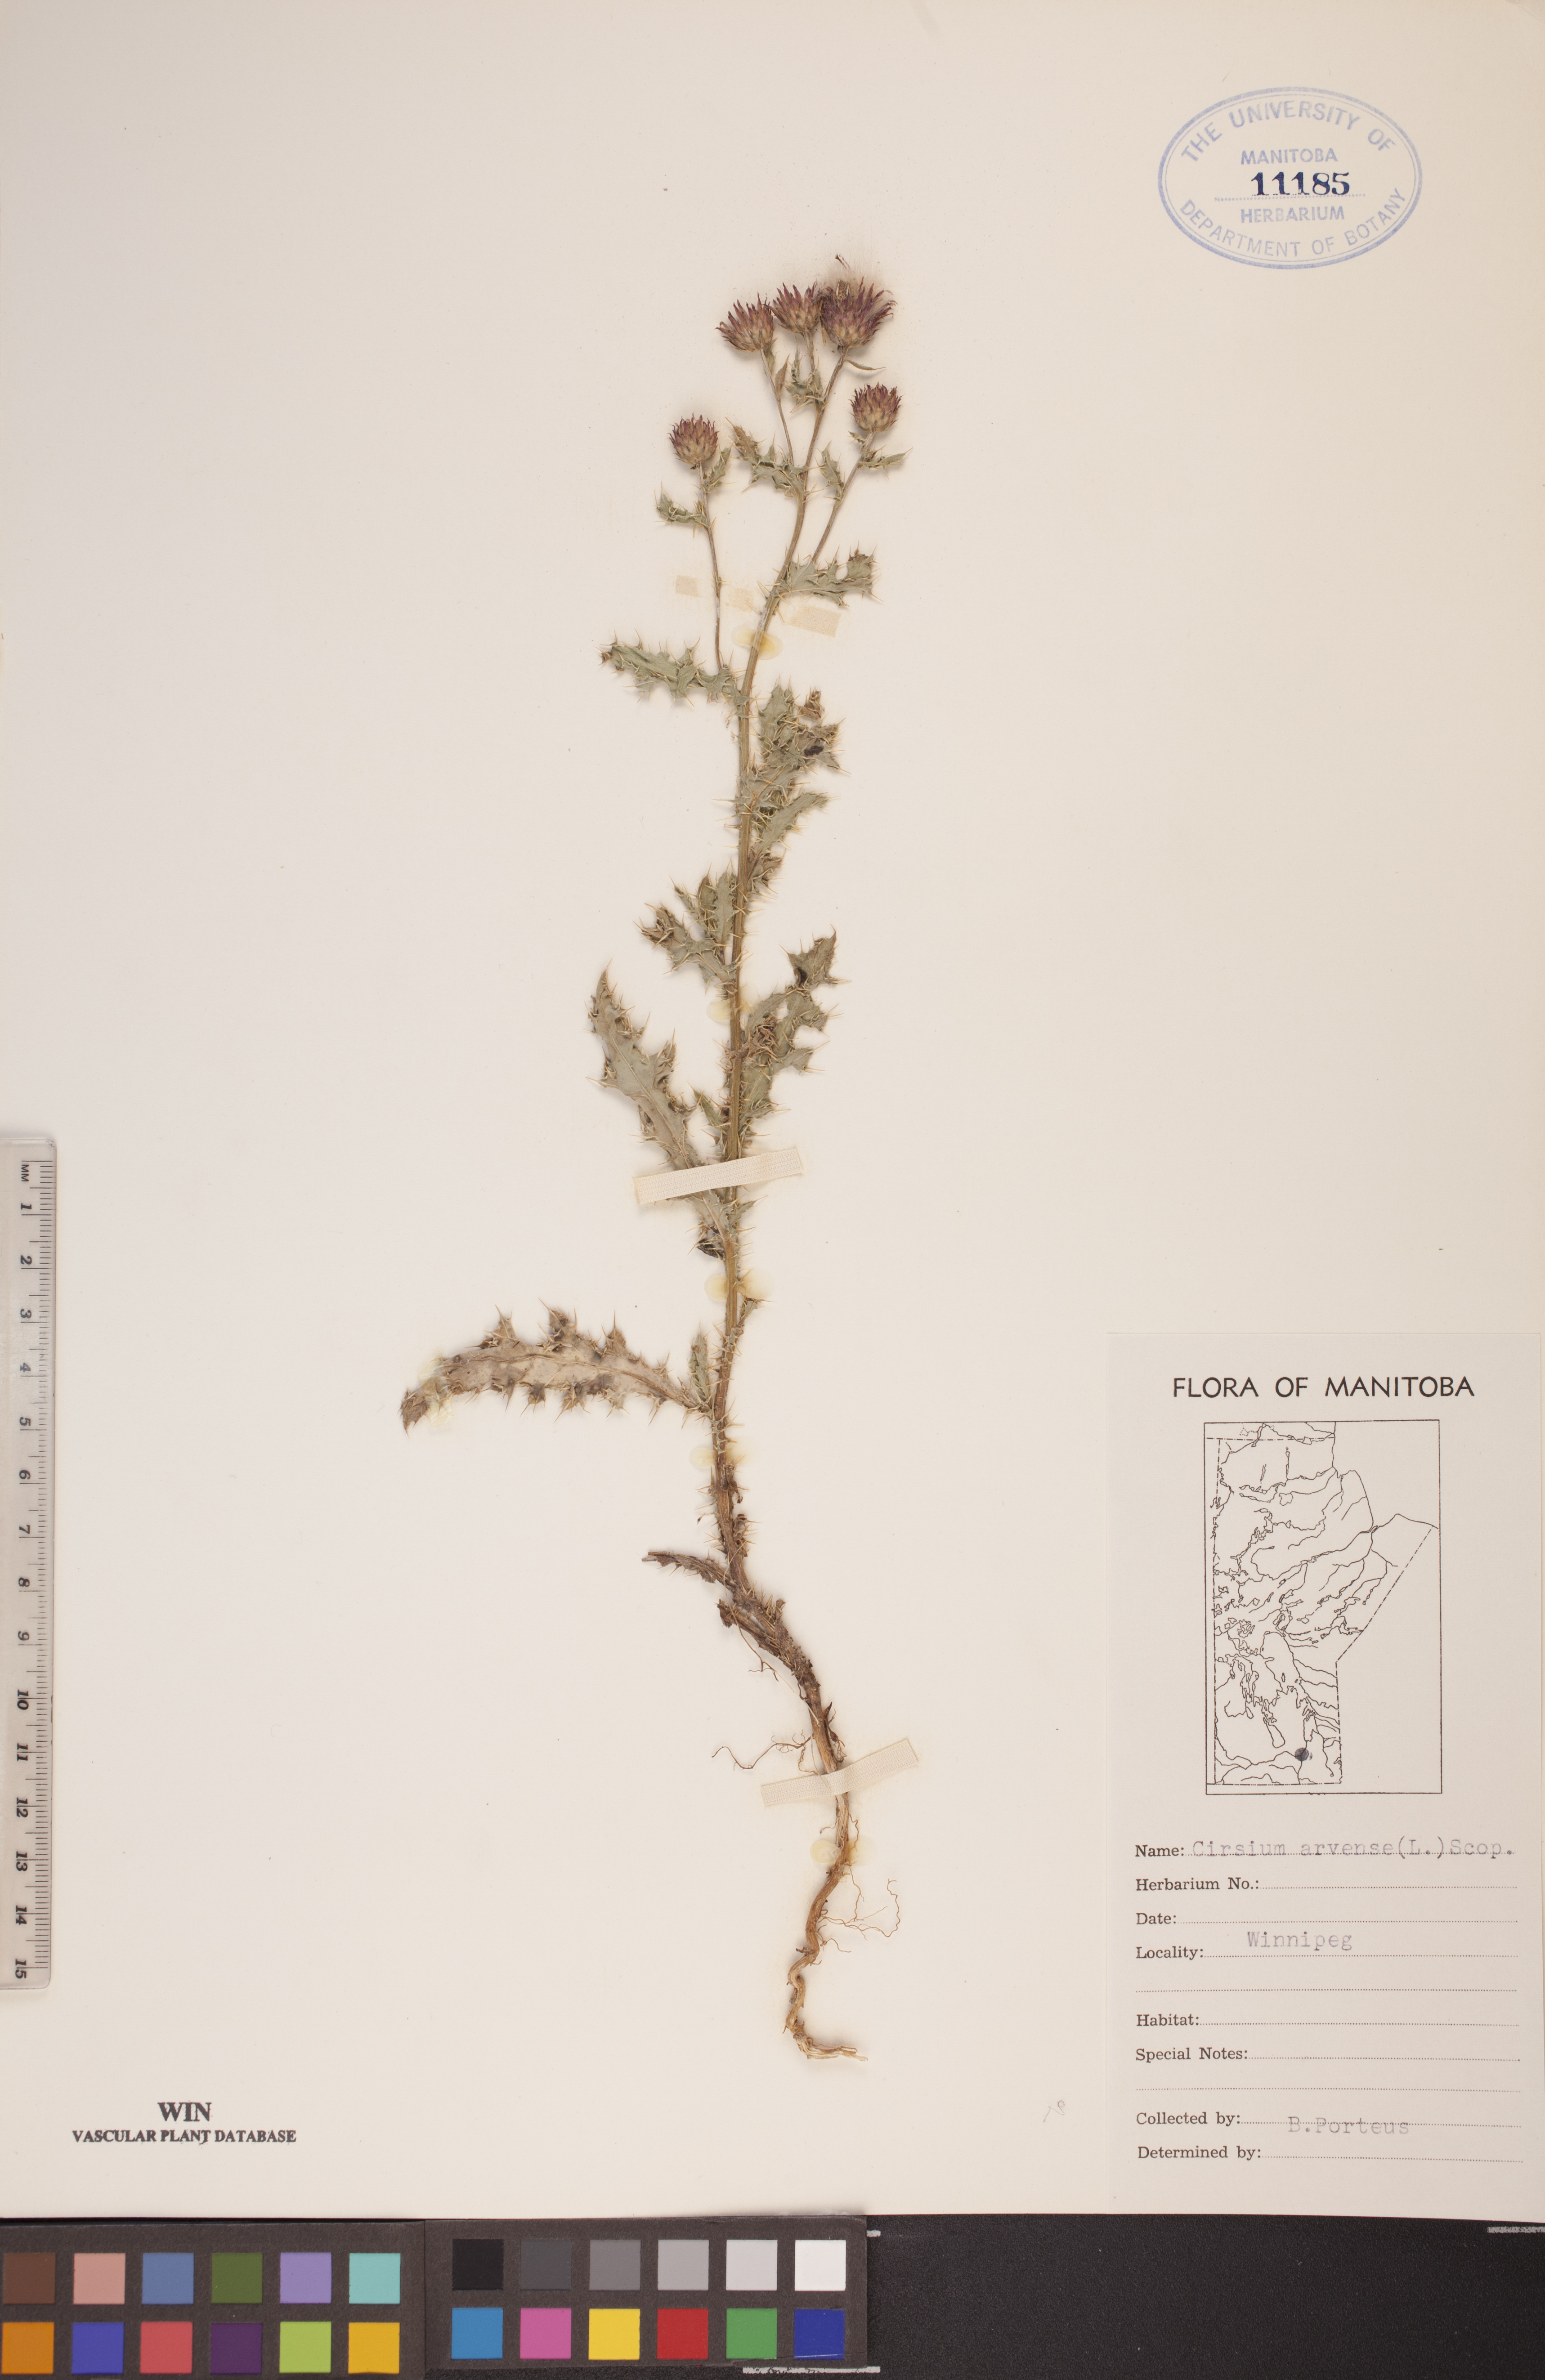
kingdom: Plantae
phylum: Tracheophyta
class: Magnoliopsida
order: Asterales
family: Asteraceae
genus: Cirsium
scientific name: Cirsium arvense
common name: Creeping thistle
